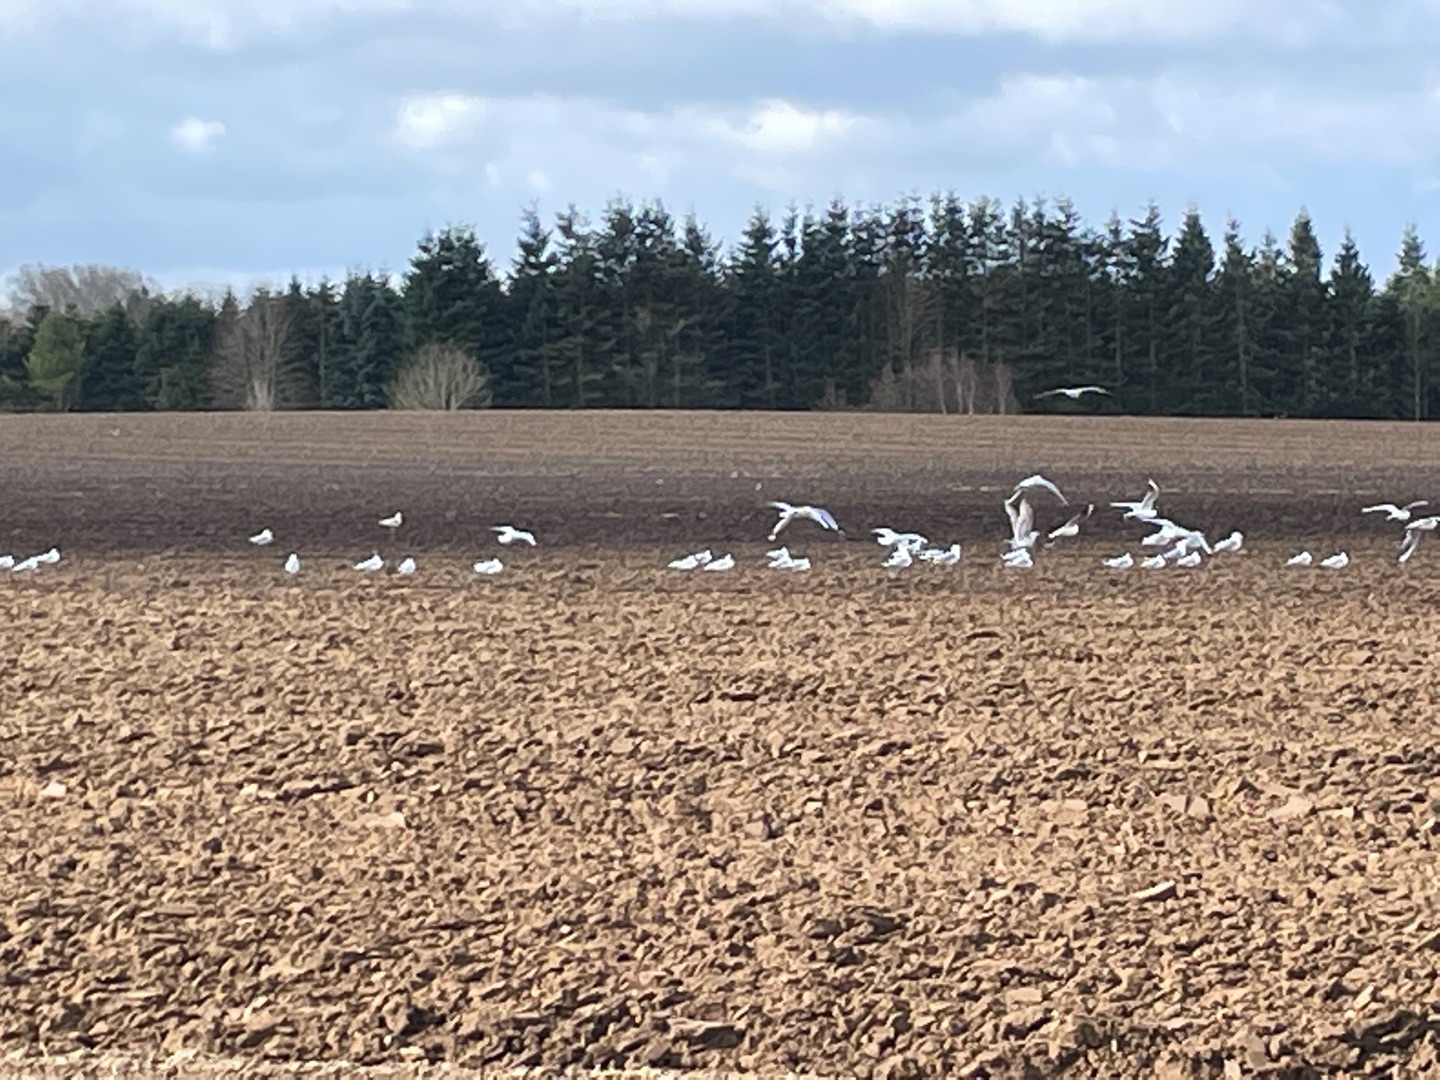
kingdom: Animalia
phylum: Chordata
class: Aves
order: Charadriiformes
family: Laridae
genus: Chroicocephalus
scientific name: Chroicocephalus ridibundus
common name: Hættemåge
